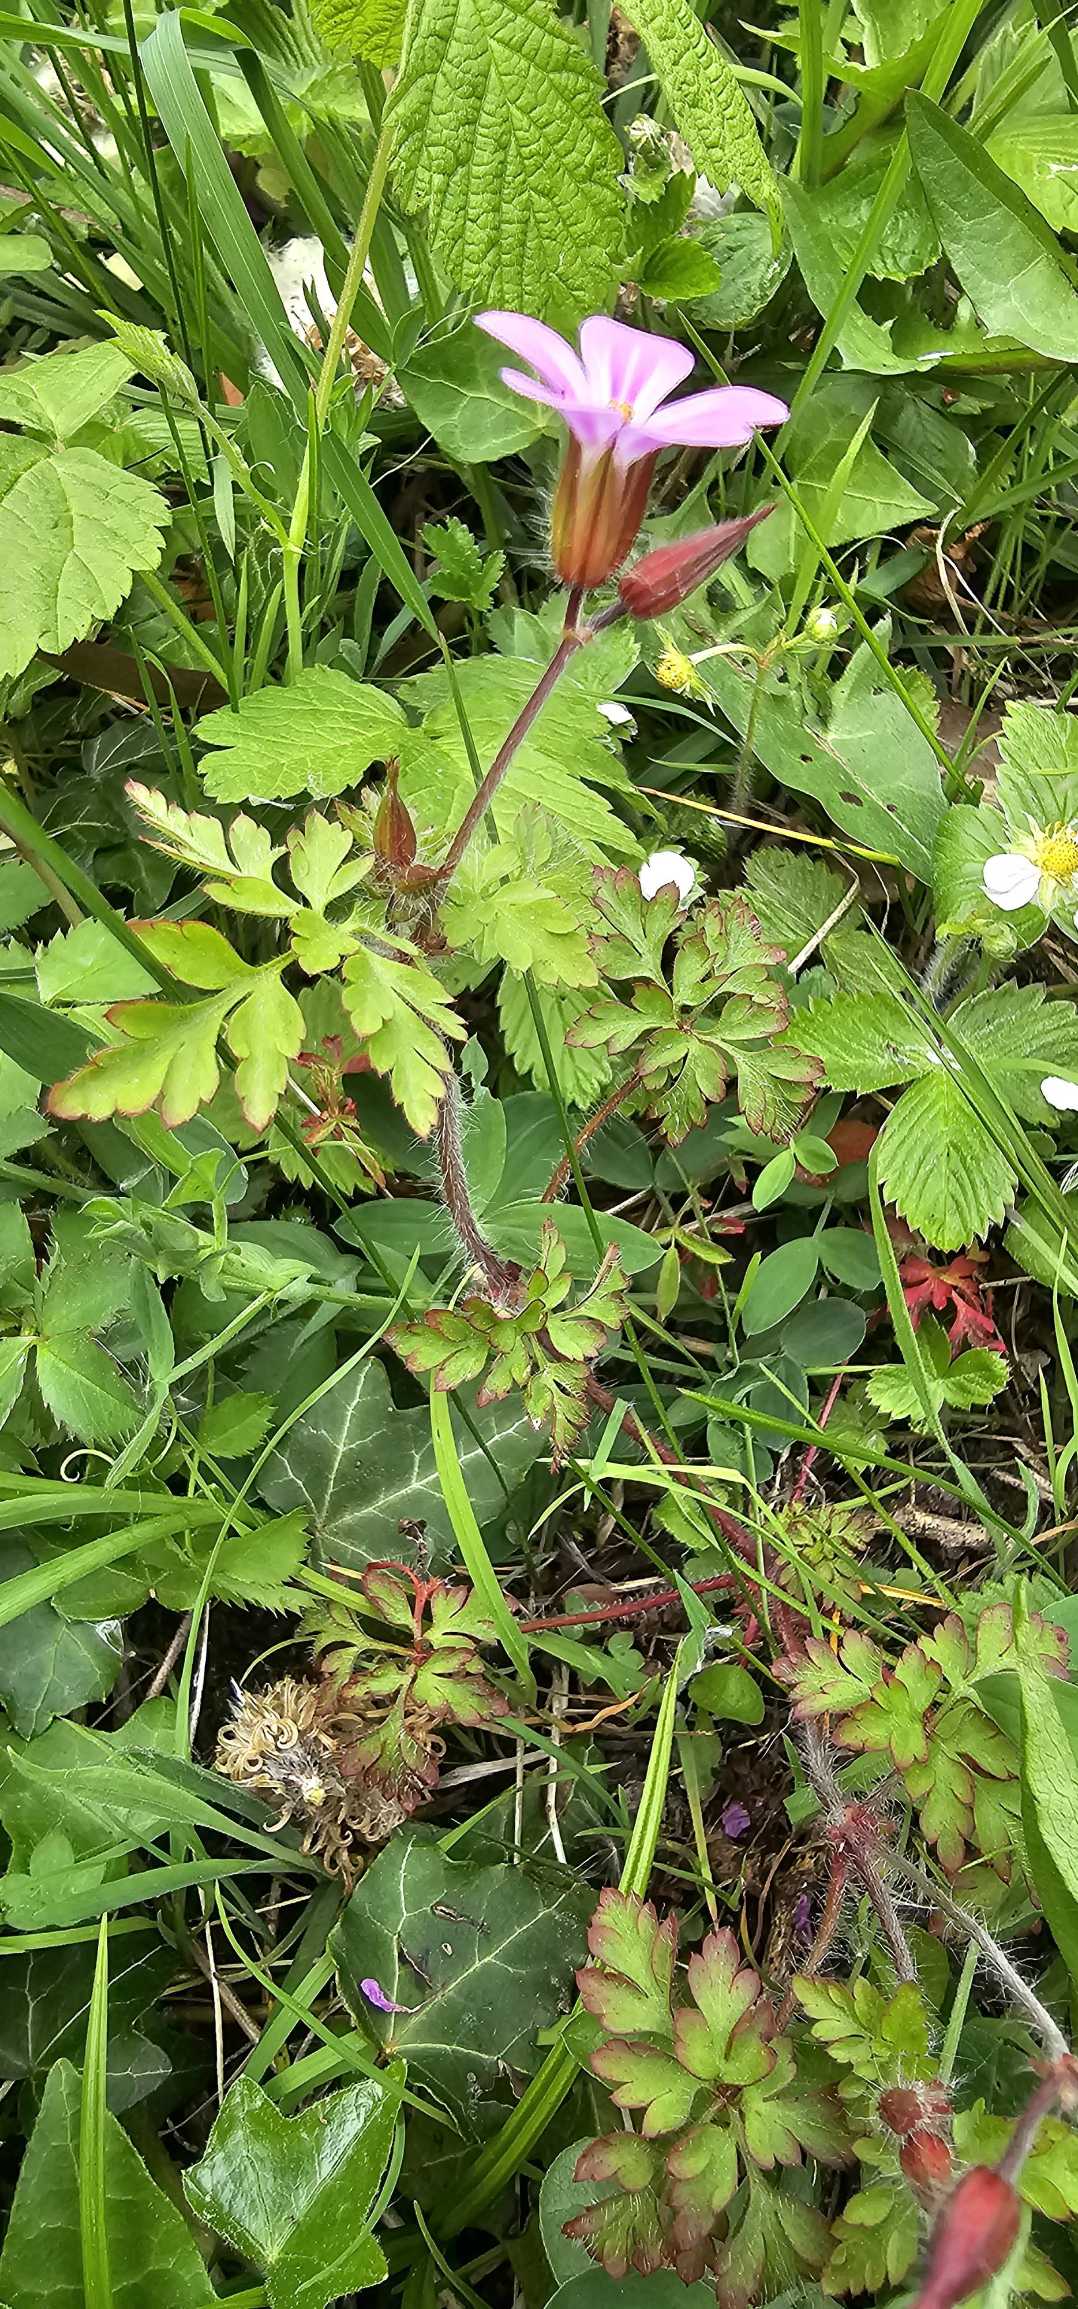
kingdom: Plantae
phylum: Tracheophyta
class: Magnoliopsida
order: Geraniales
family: Geraniaceae
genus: Geranium
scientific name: Geranium robertianum
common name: Stinkende storkenæb
